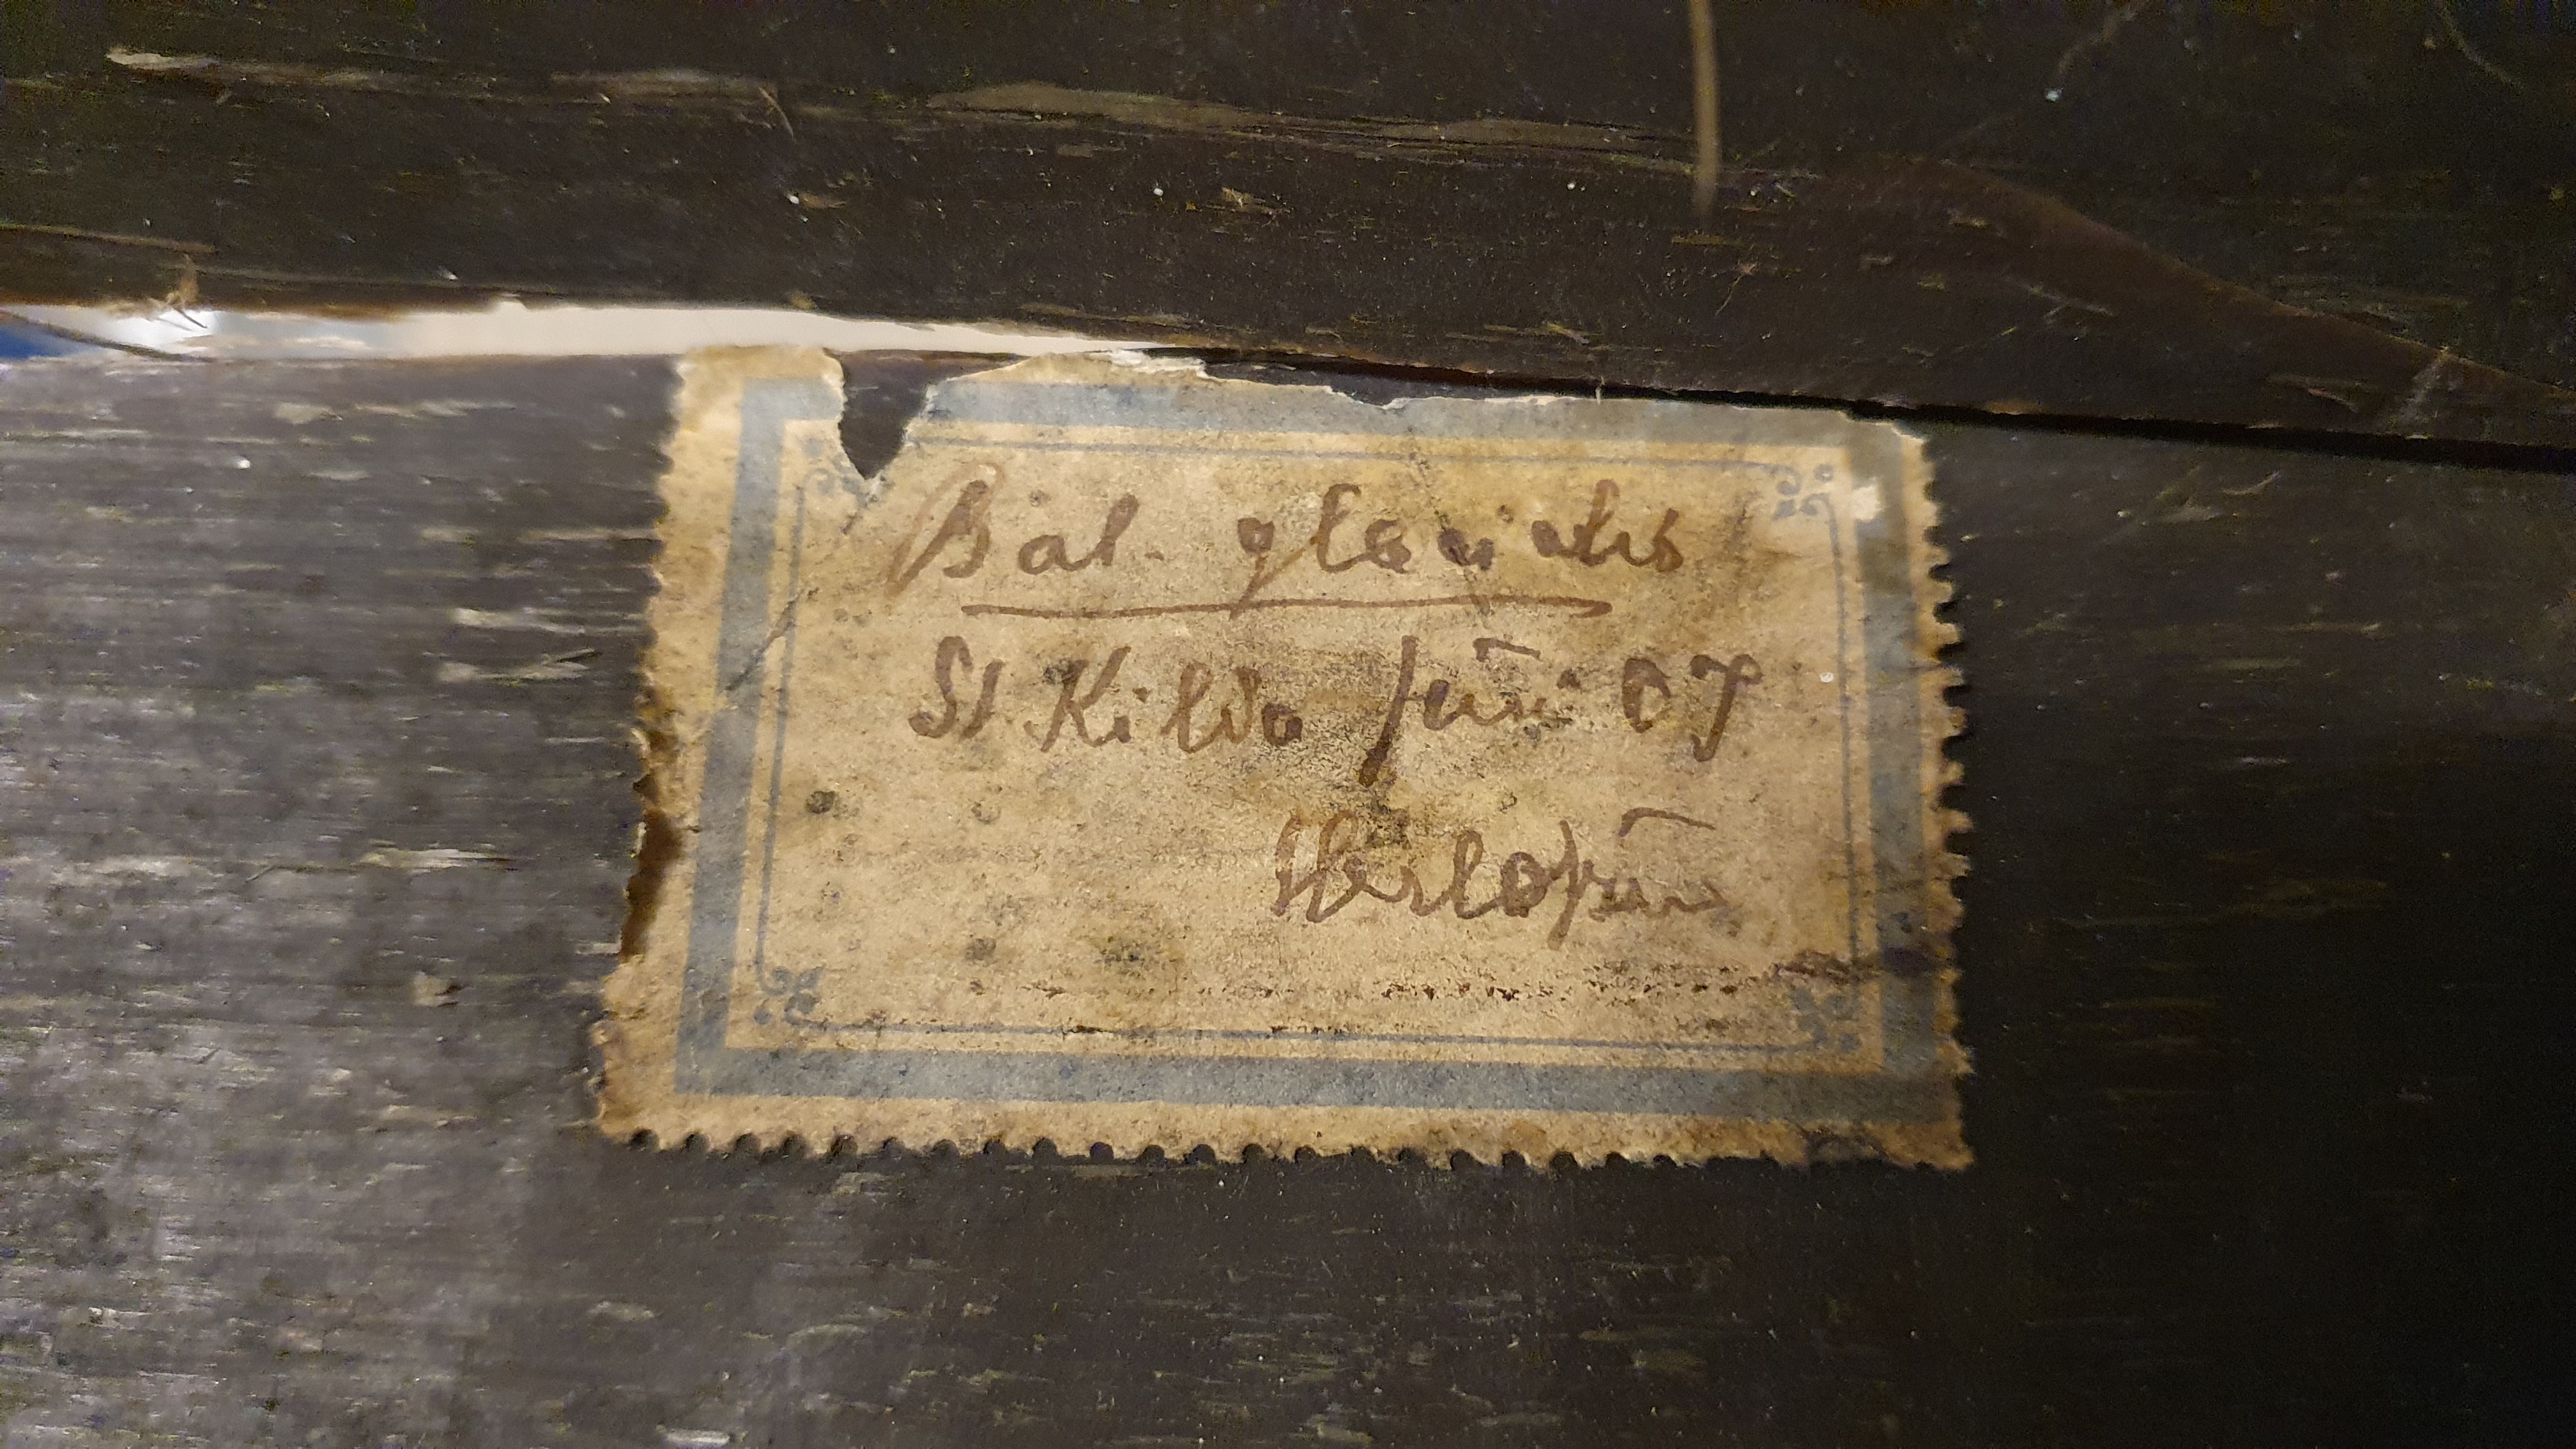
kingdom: Animalia
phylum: Chordata
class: Mammalia
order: Cetacea
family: Balaenidae
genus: Eubalaena
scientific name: Eubalaena glacialis
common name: North atlantic right whale
